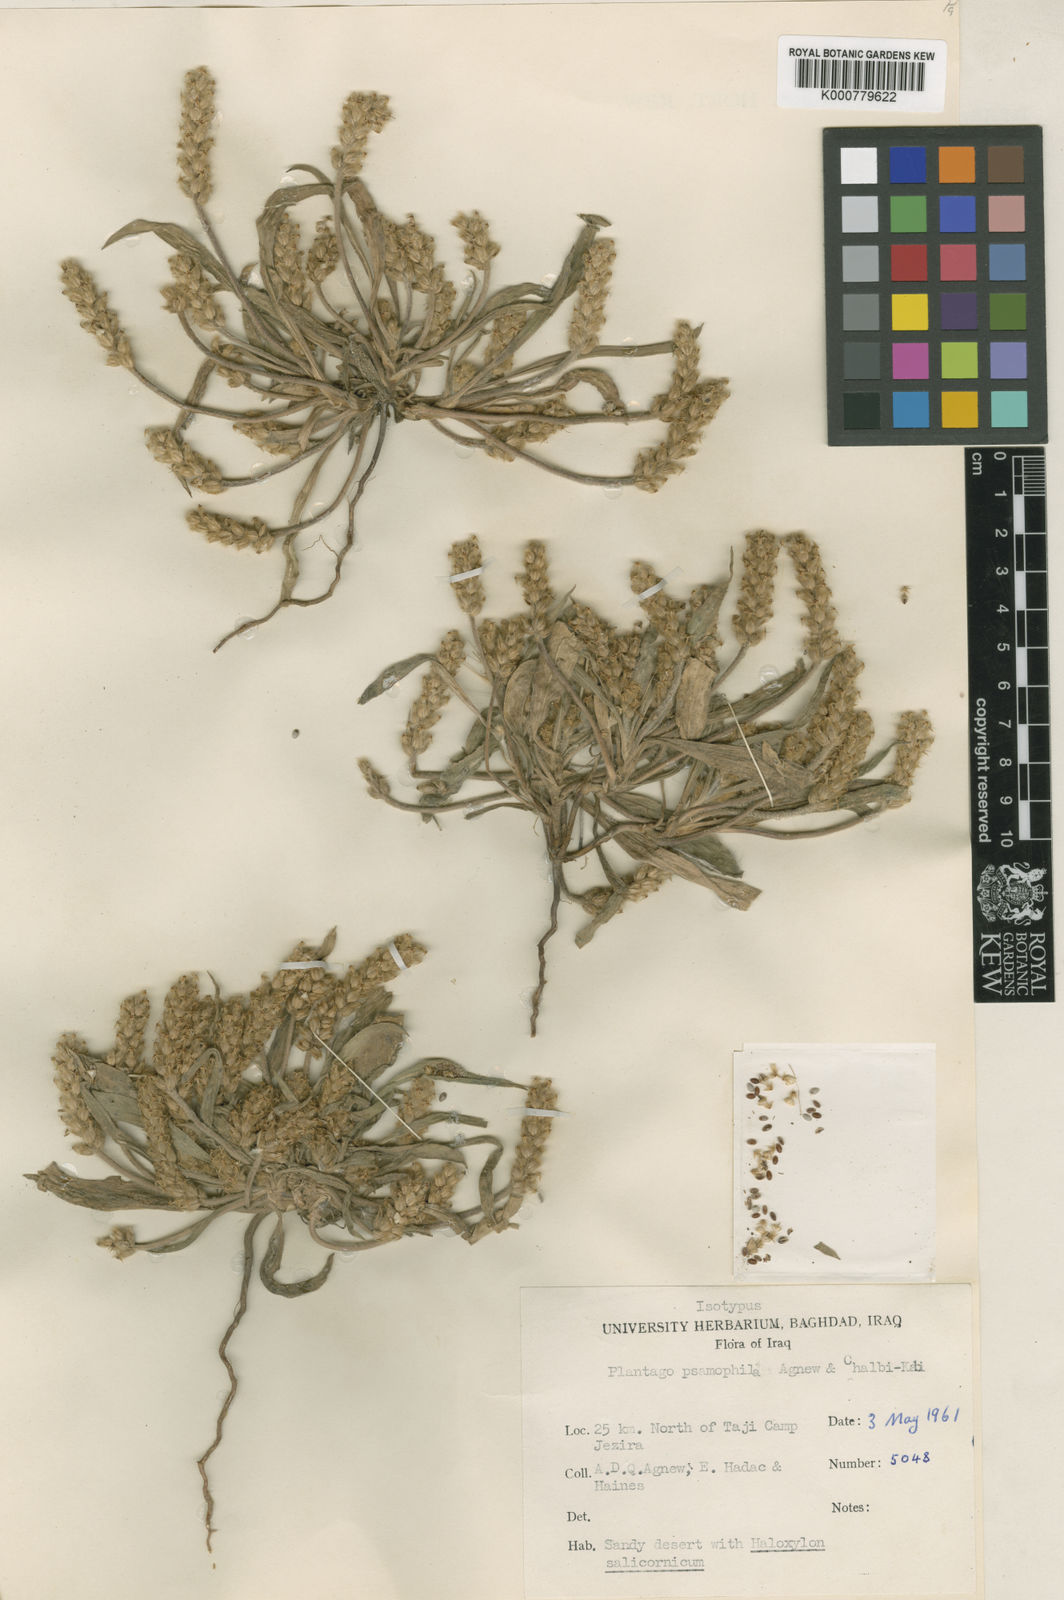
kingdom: Plantae
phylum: Tracheophyta
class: Magnoliopsida
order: Lamiales
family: Plantaginaceae
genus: Plantago
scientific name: Plantago psammophila
